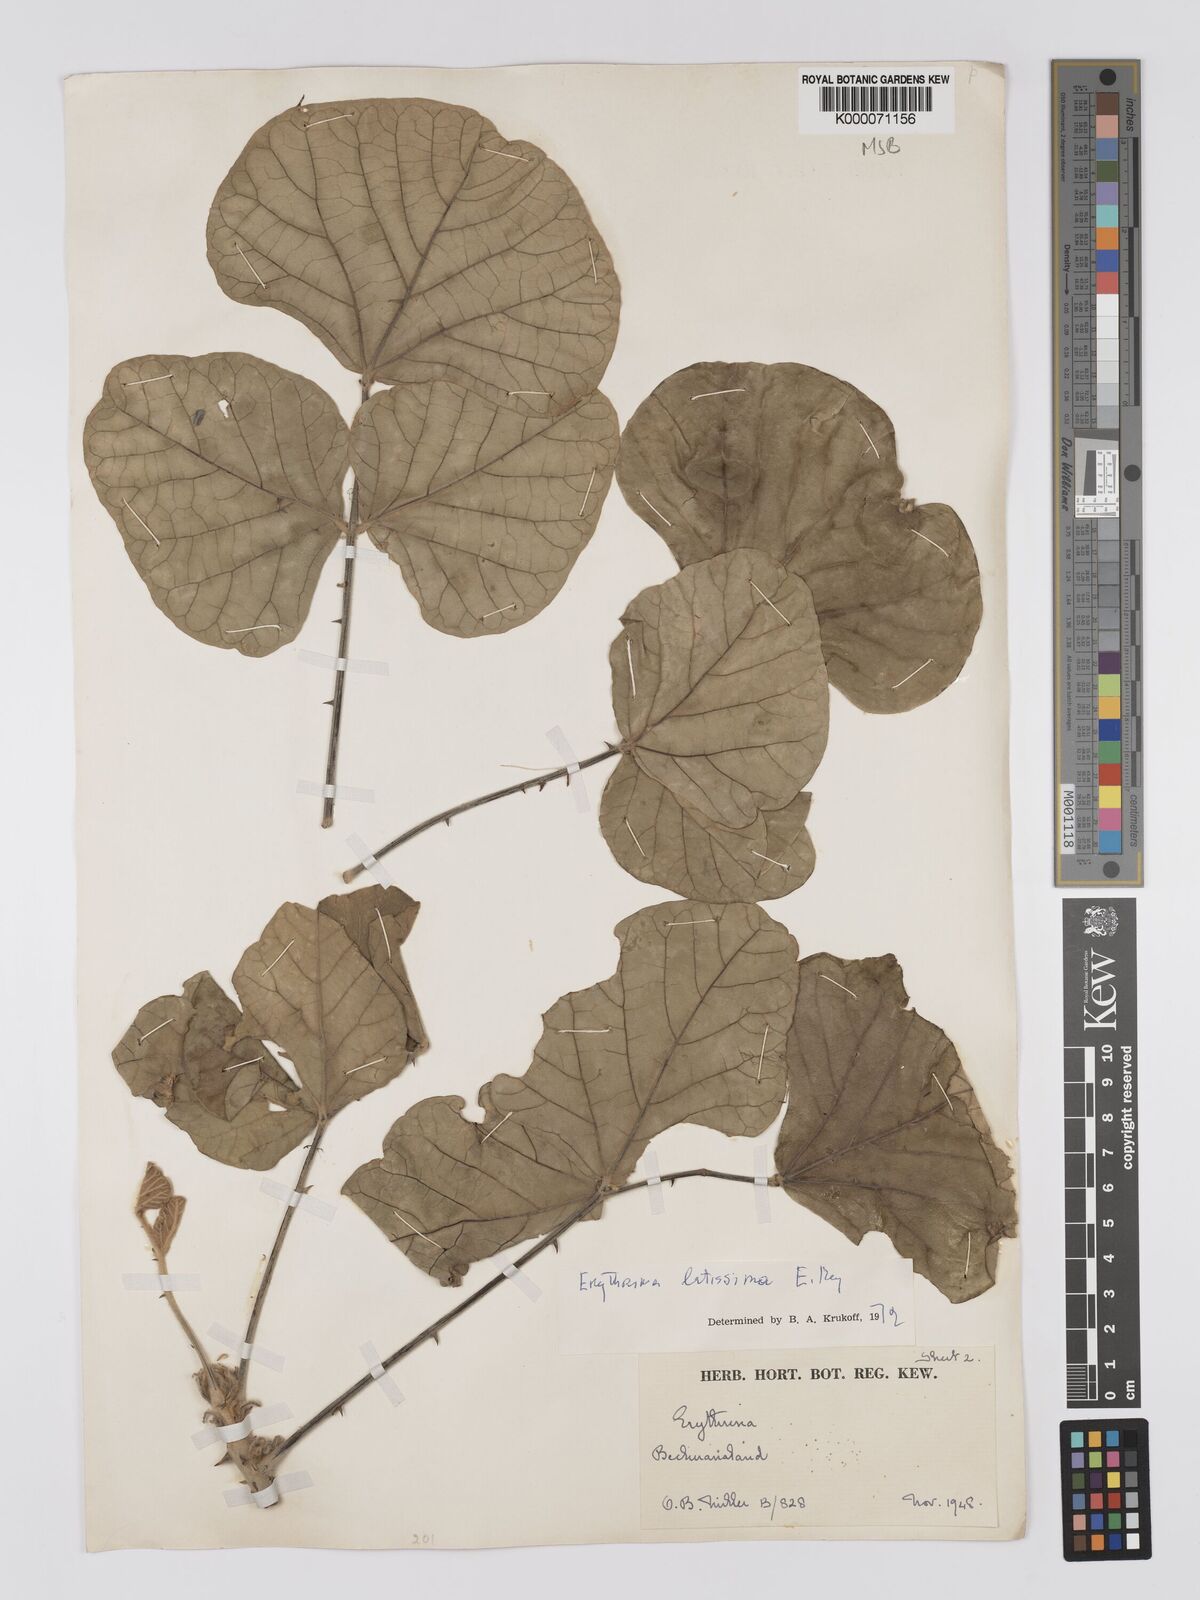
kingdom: Plantae
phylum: Tracheophyta
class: Magnoliopsida
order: Fabales
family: Fabaceae
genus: Erythrina
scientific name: Erythrina latissima
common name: Broad-leaved coral tree
